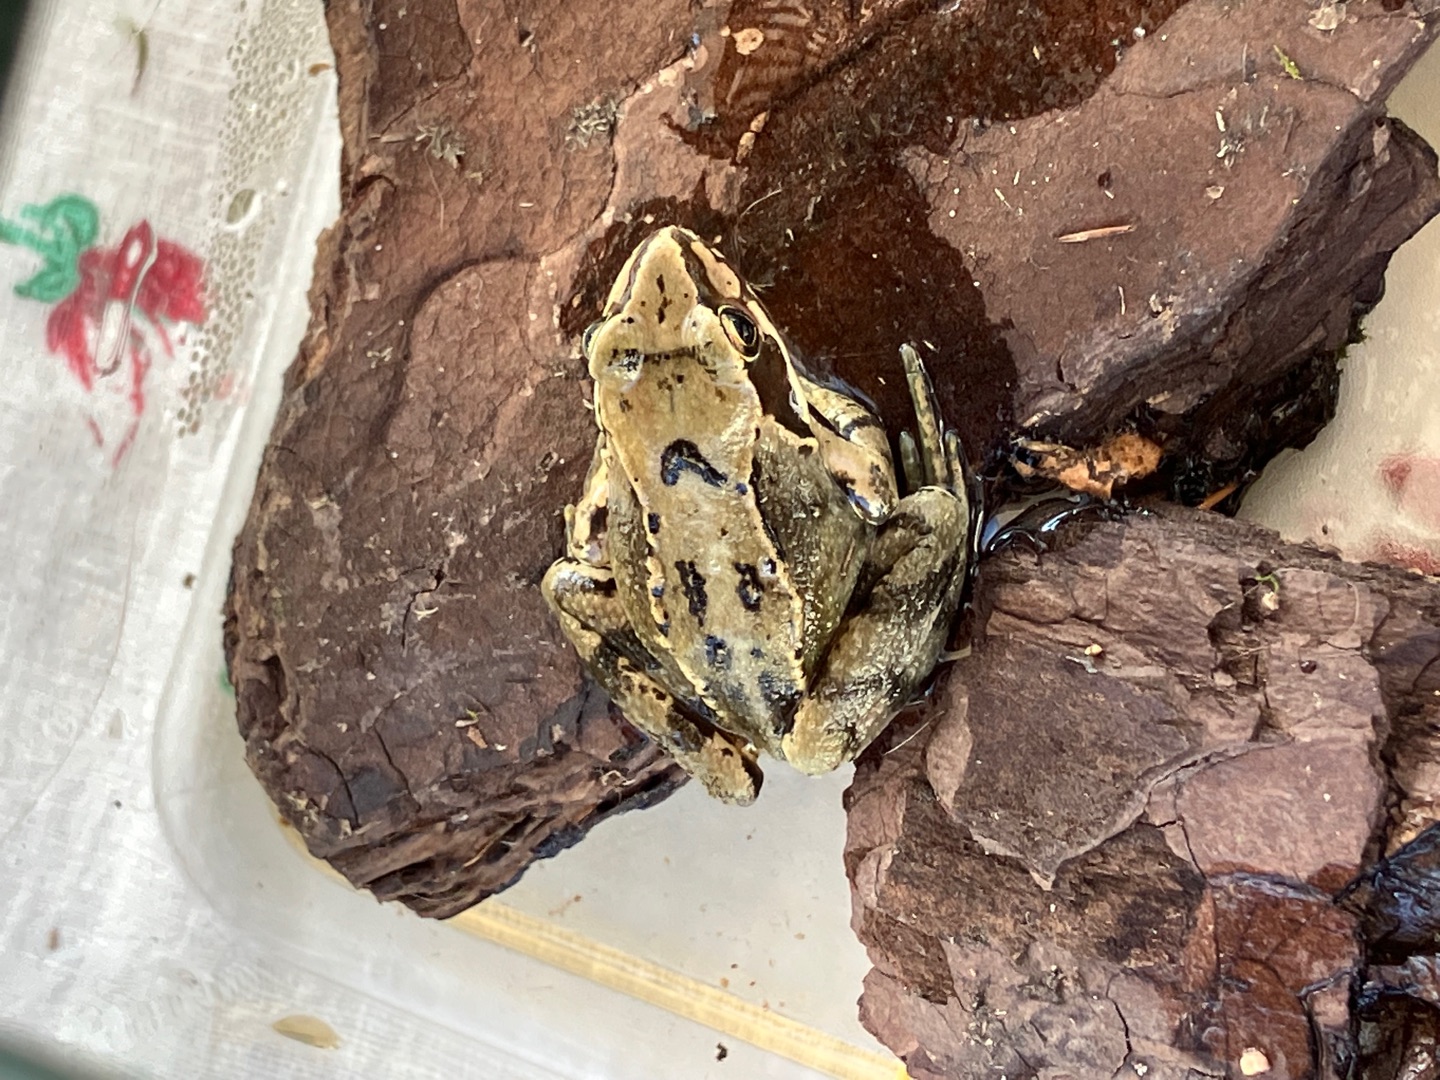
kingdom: Animalia
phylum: Chordata
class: Amphibia
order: Anura
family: Ranidae
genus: Rana
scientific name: Rana temporaria
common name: Butsnudet frø
